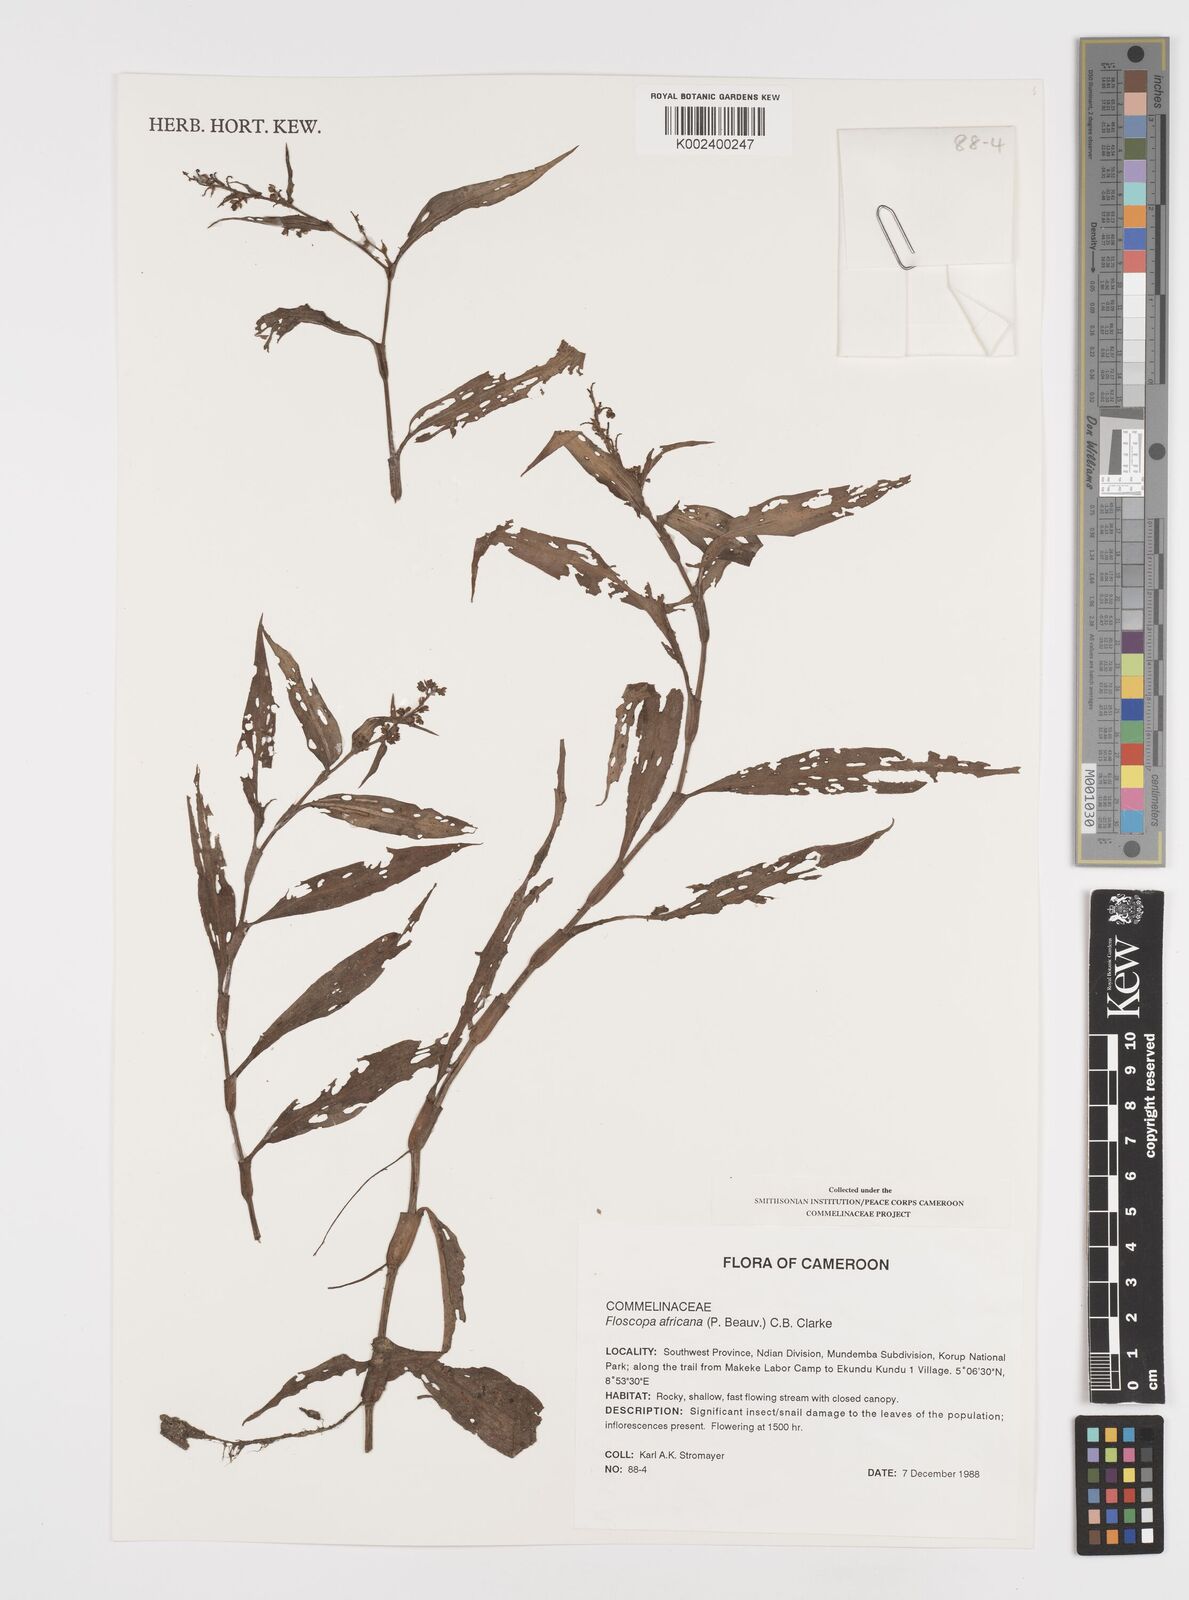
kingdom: Plantae
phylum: Tracheophyta
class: Liliopsida
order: Commelinales
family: Commelinaceae
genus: Floscopa
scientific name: Floscopa africana
